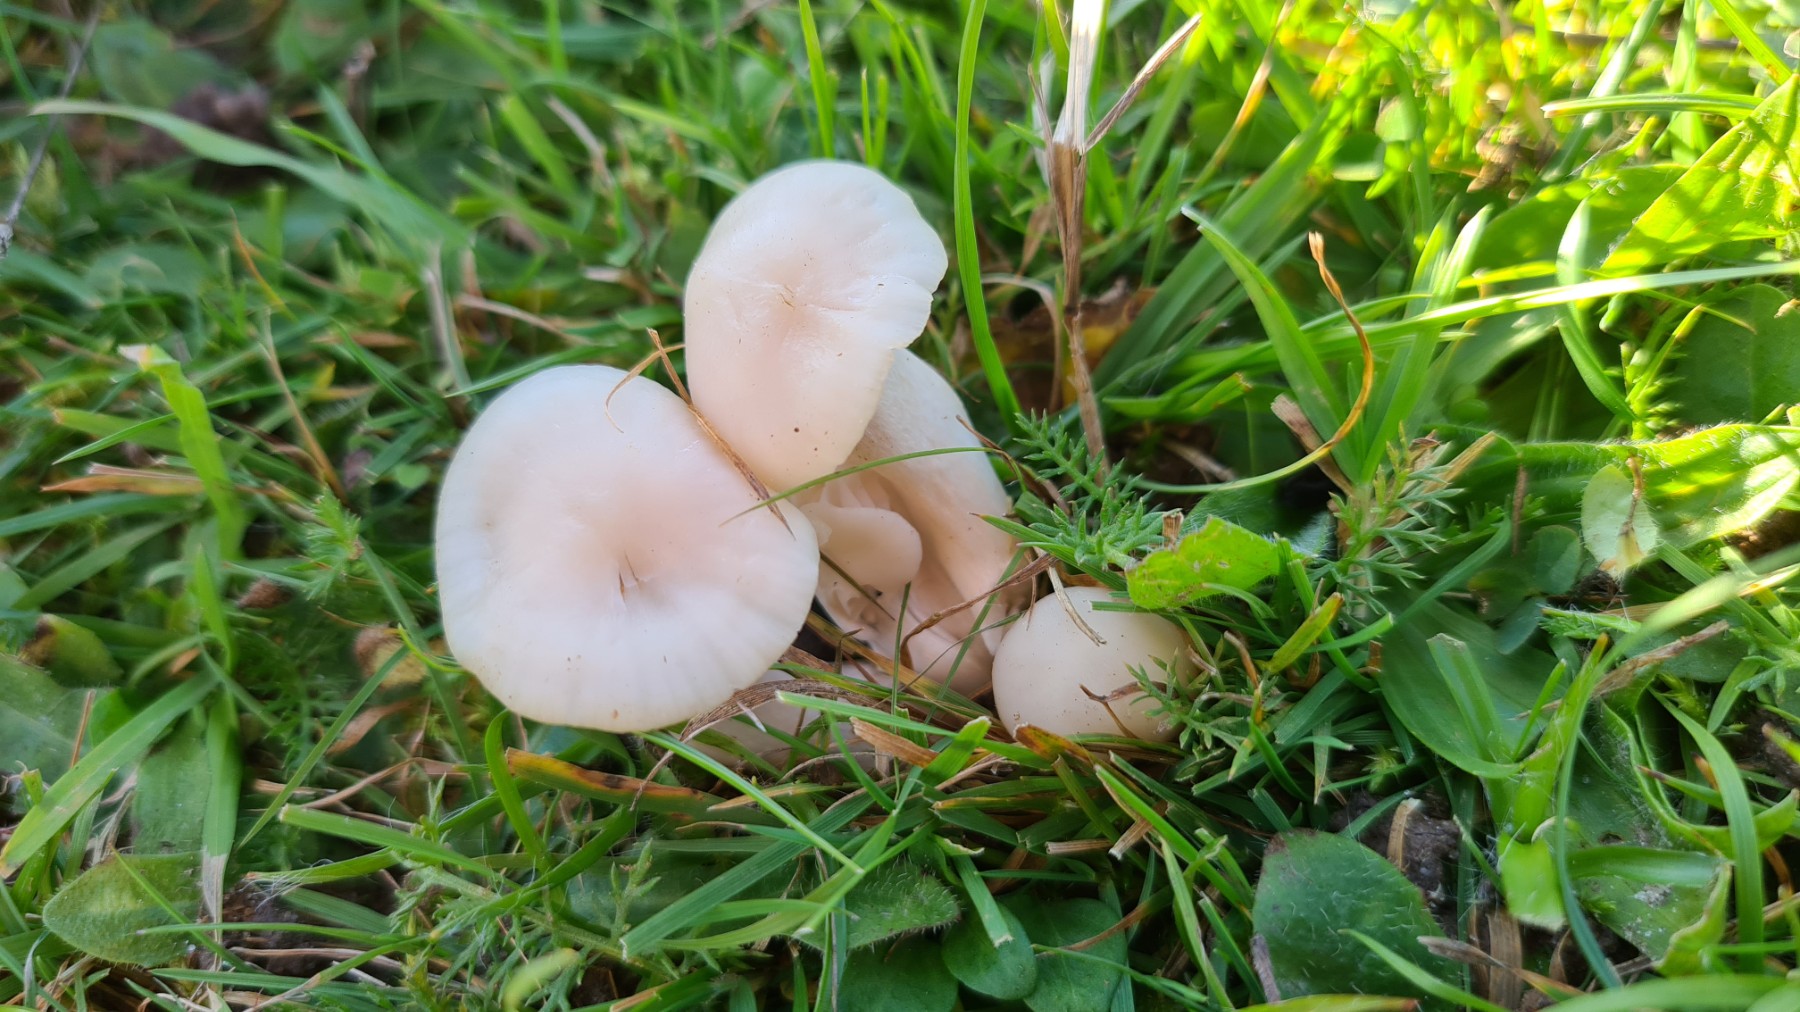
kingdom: Fungi
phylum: Basidiomycota
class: Agaricomycetes
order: Agaricales
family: Hygrophoraceae
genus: Cuphophyllus
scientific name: Cuphophyllus
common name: vokshat
